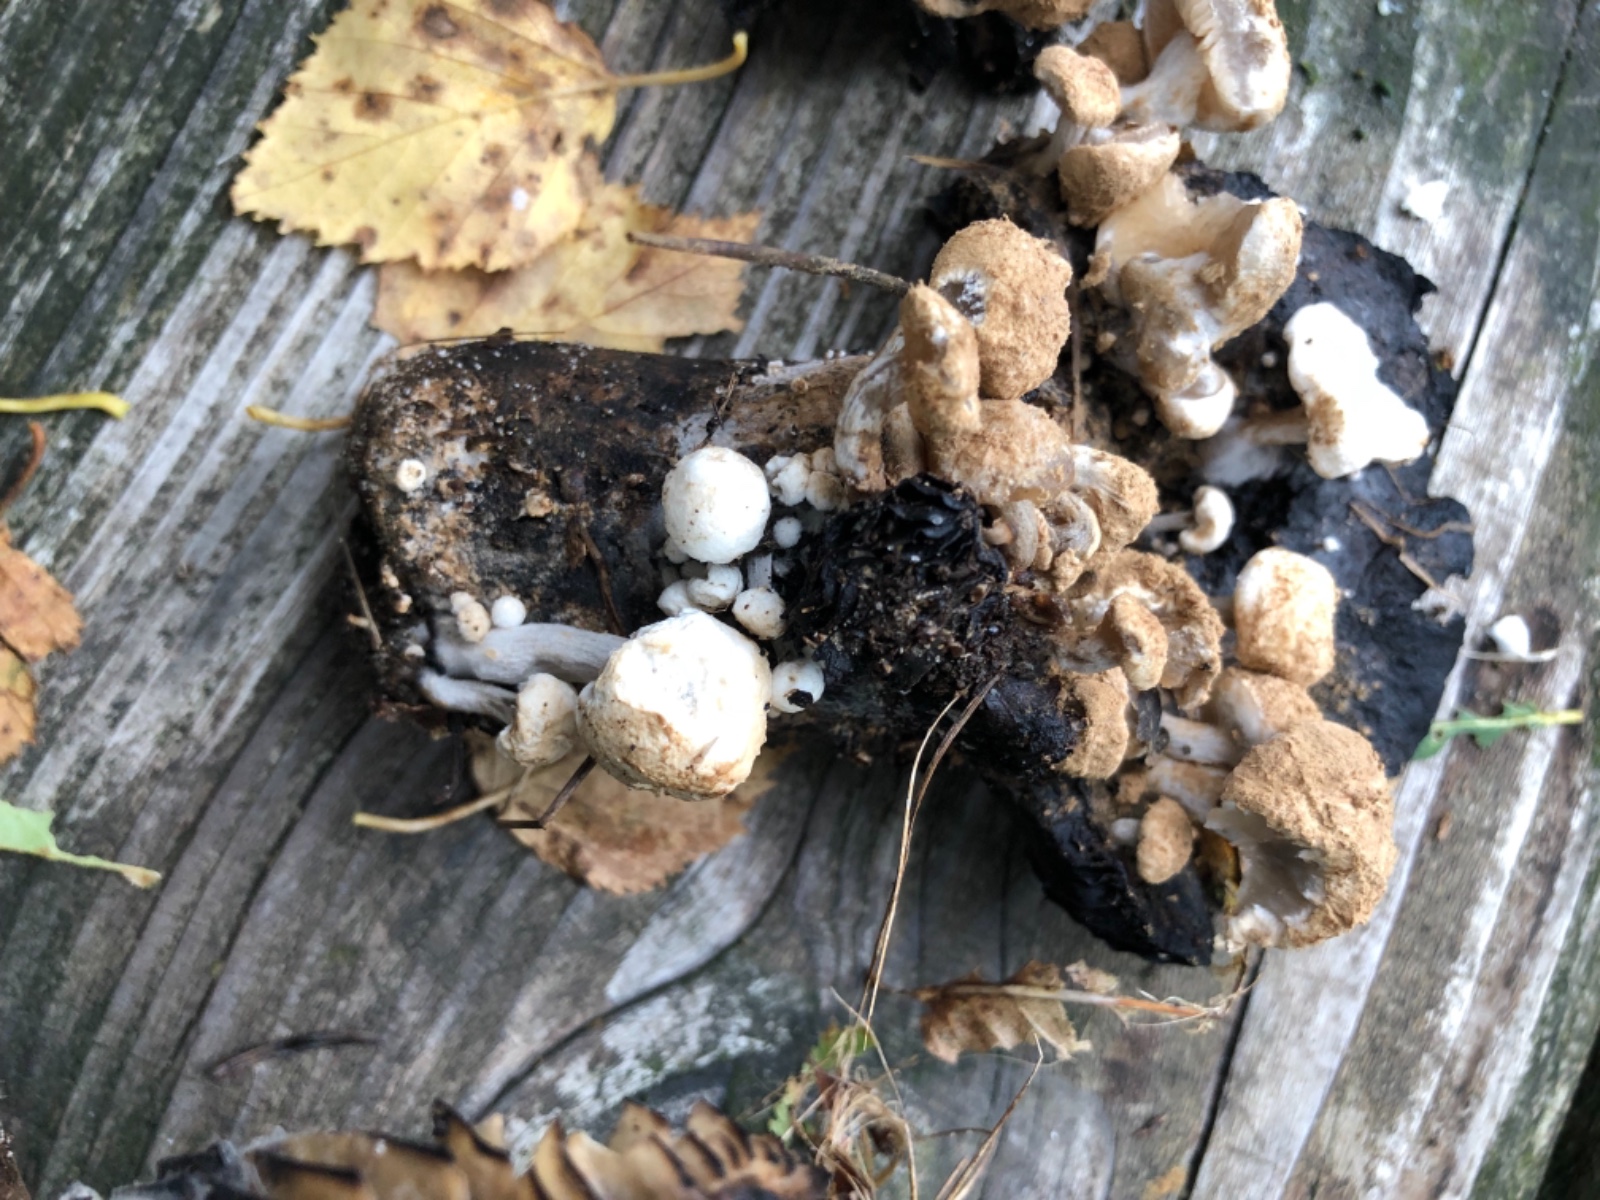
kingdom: Fungi
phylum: Basidiomycota
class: Agaricomycetes
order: Agaricales
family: Lyophyllaceae
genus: Asterophora
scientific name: Asterophora lycoperdoides
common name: brunpudret snyltehat
